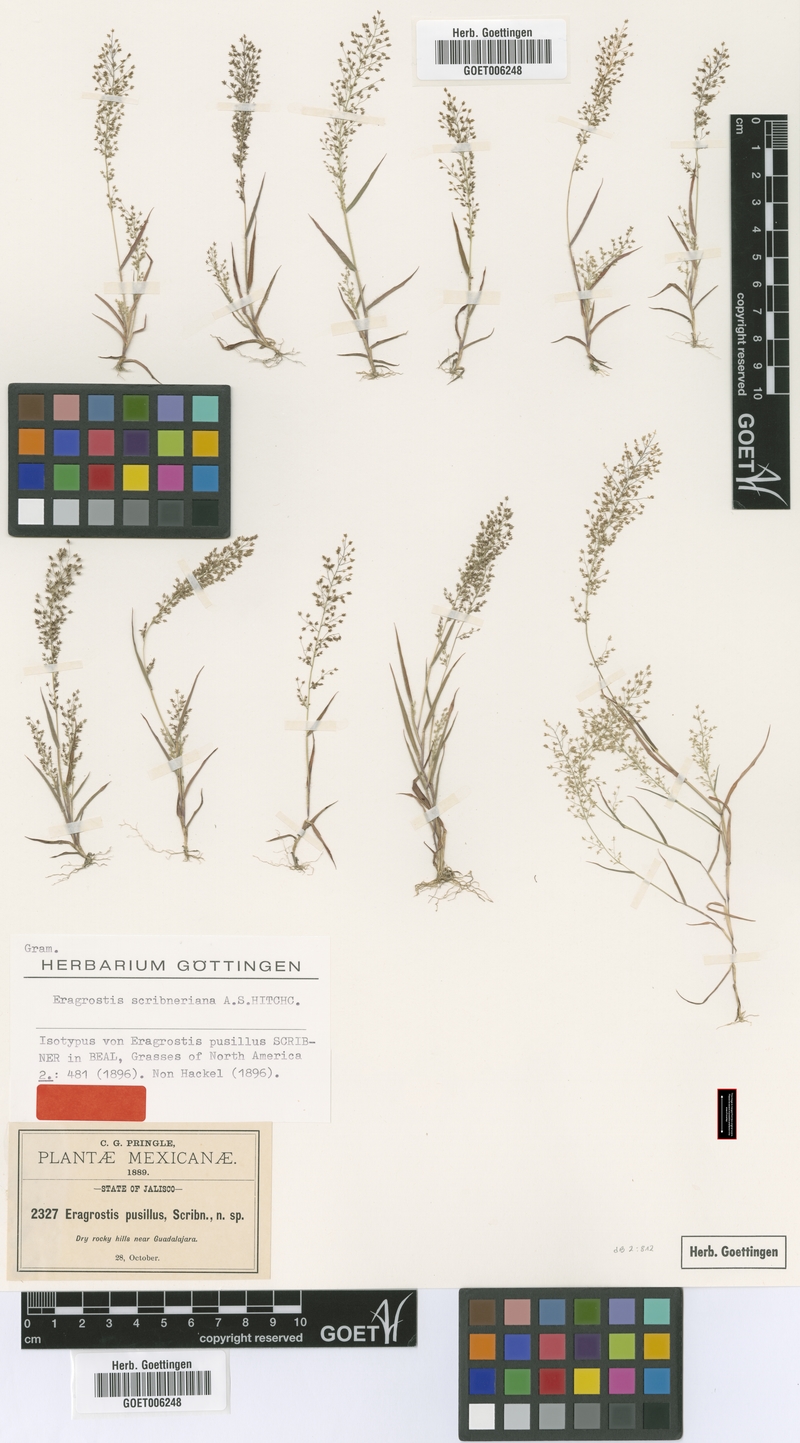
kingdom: Plantae
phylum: Tracheophyta
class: Liliopsida
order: Poales
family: Poaceae
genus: Eragrostis
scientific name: Eragrostis pringlei
